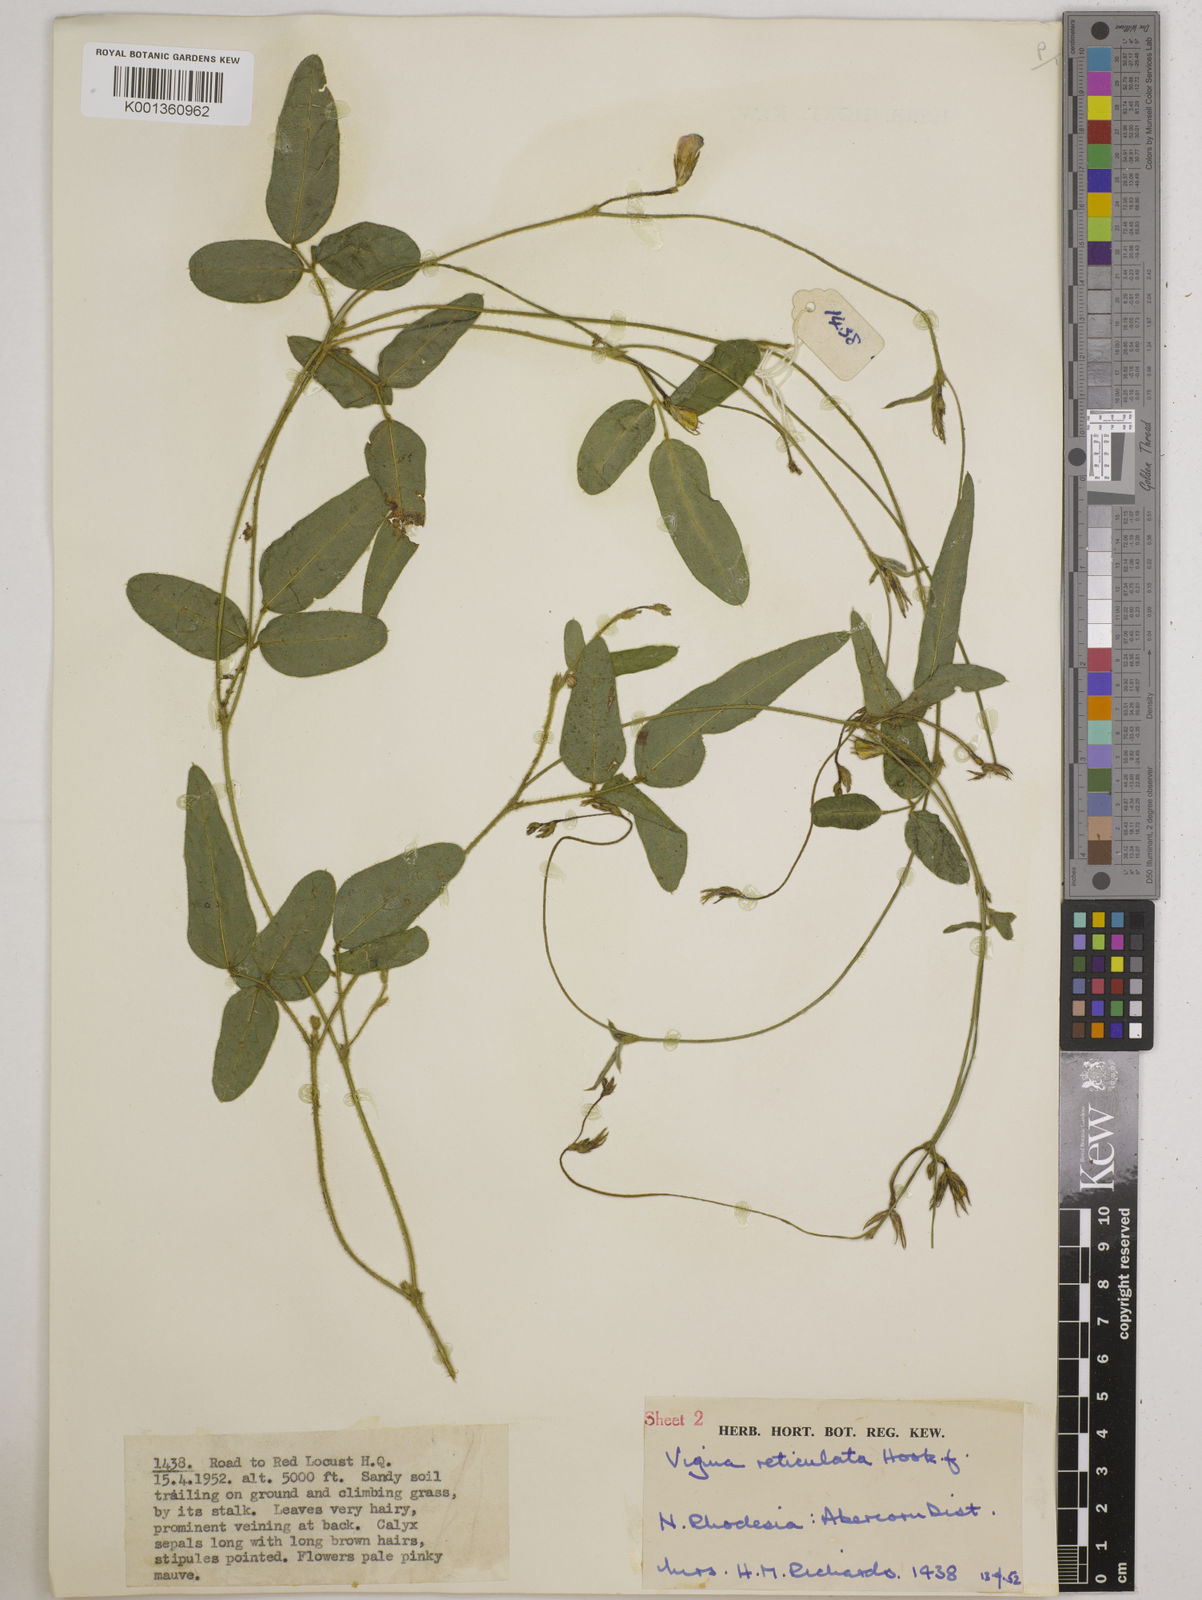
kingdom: Plantae
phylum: Tracheophyta
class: Magnoliopsida
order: Fabales
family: Fabaceae
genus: Vigna
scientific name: Vigna reticulata
